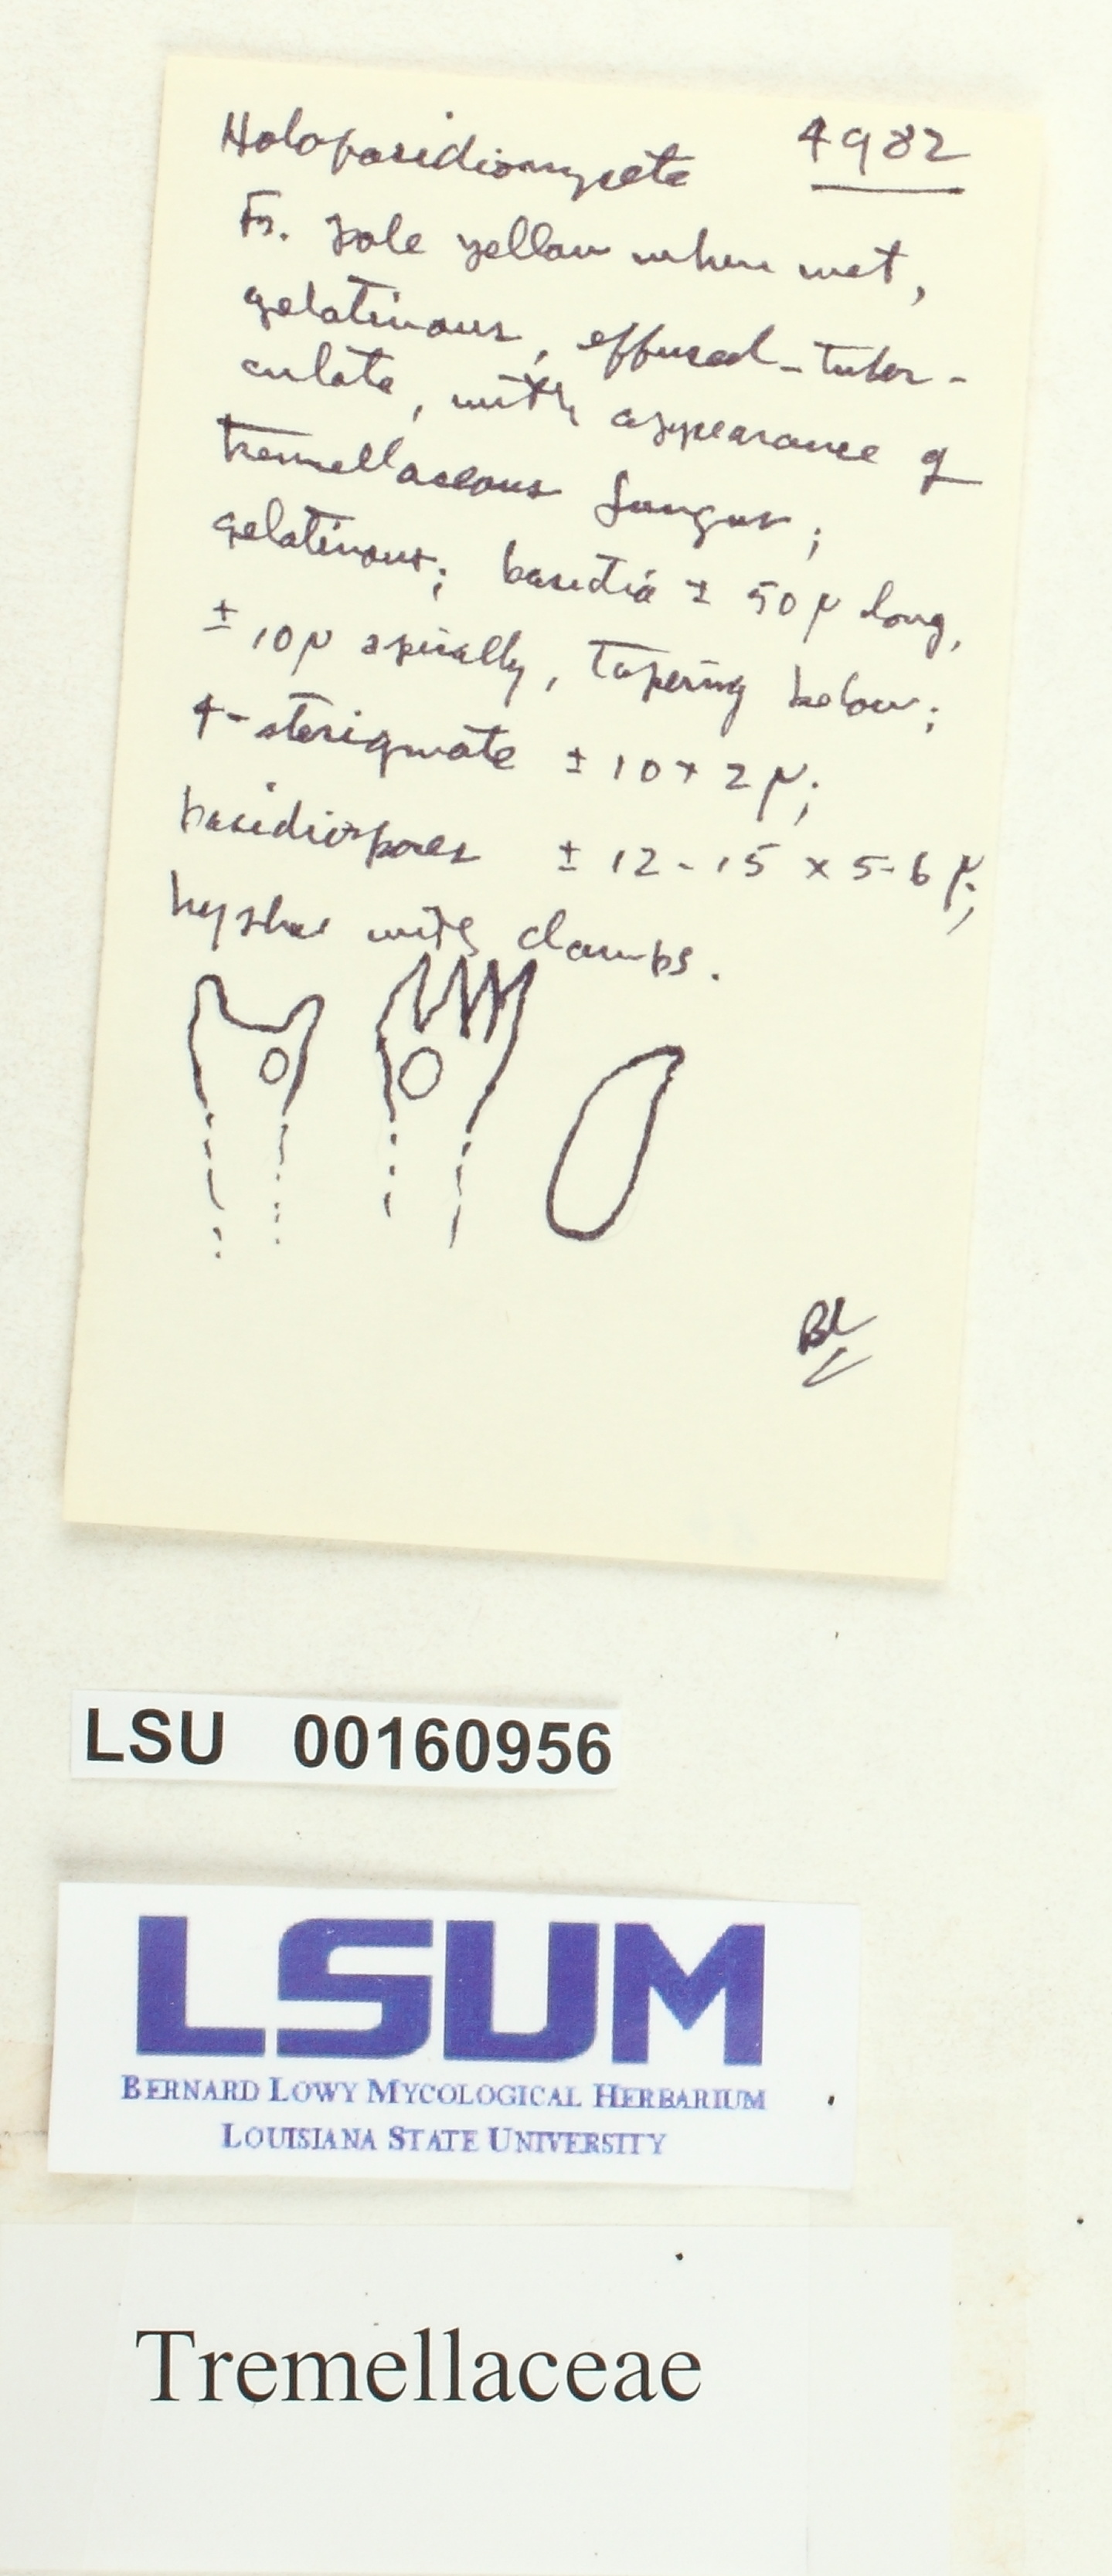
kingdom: Fungi
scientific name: Fungi
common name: Fungi
